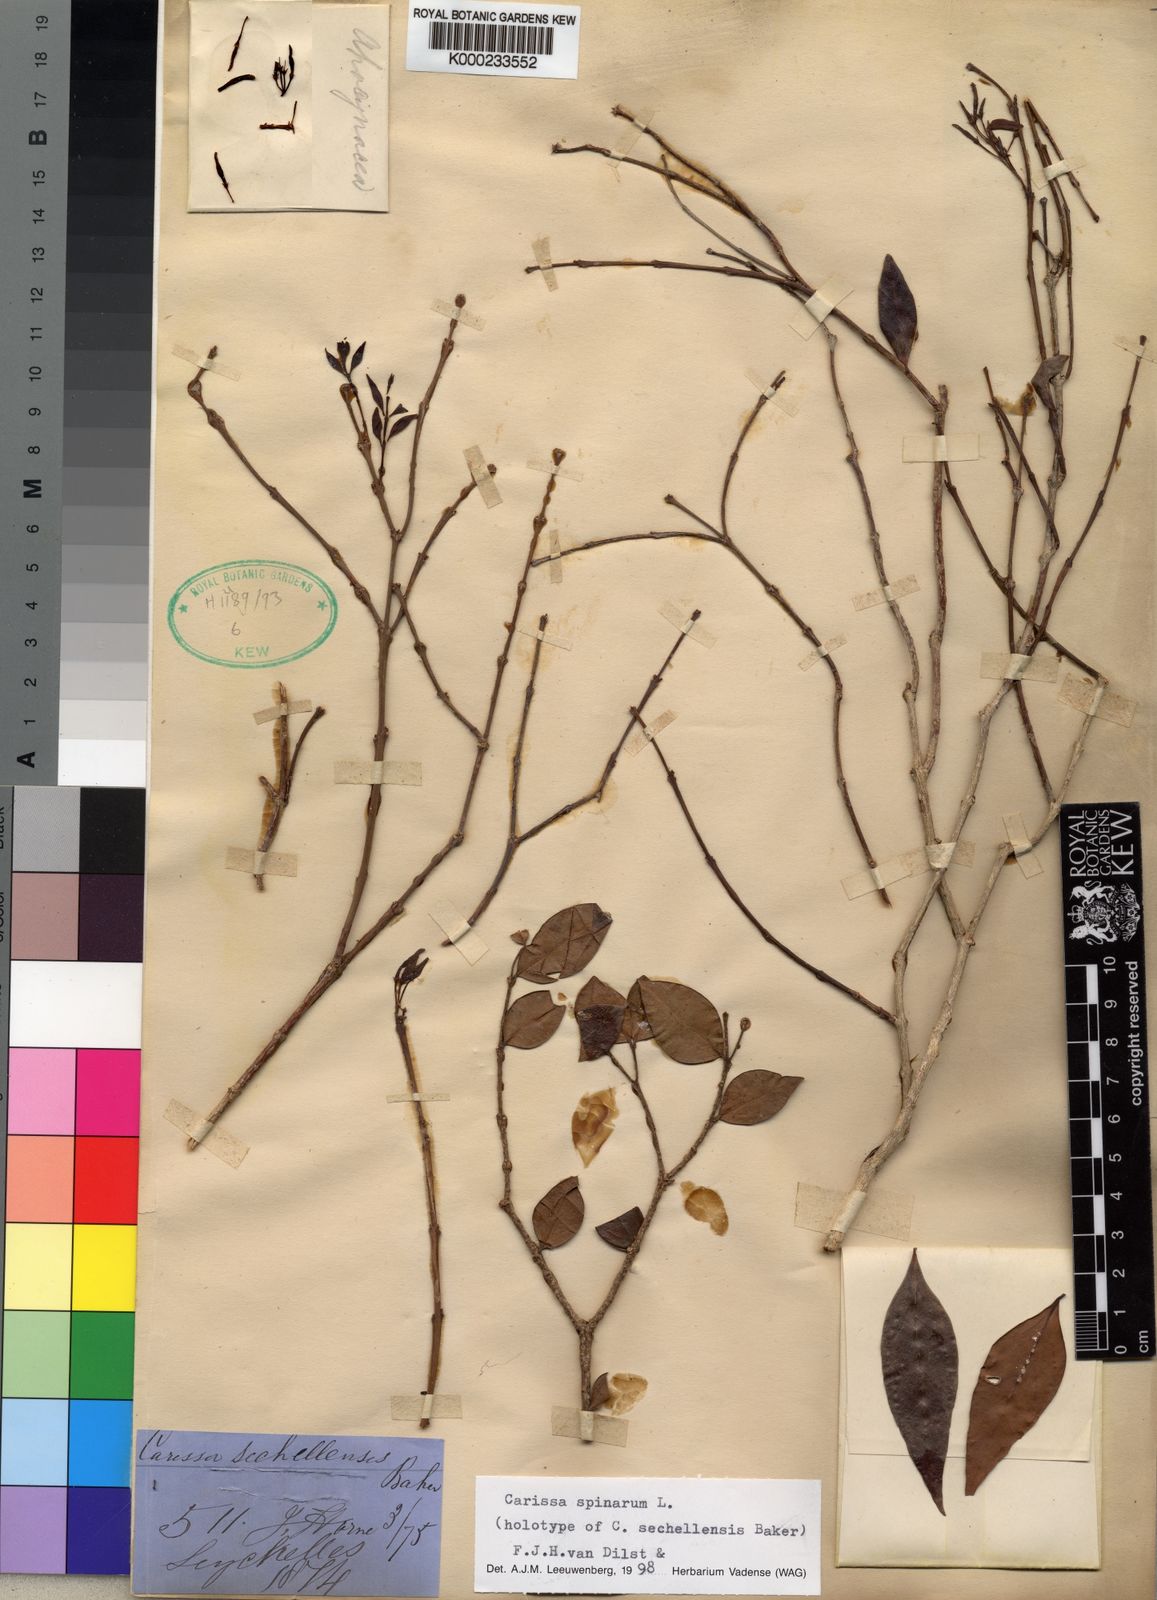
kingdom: Plantae
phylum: Tracheophyta
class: Magnoliopsida
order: Gentianales
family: Apocynaceae
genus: Carissa
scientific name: Carissa spinarum
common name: Egyptian carissa
